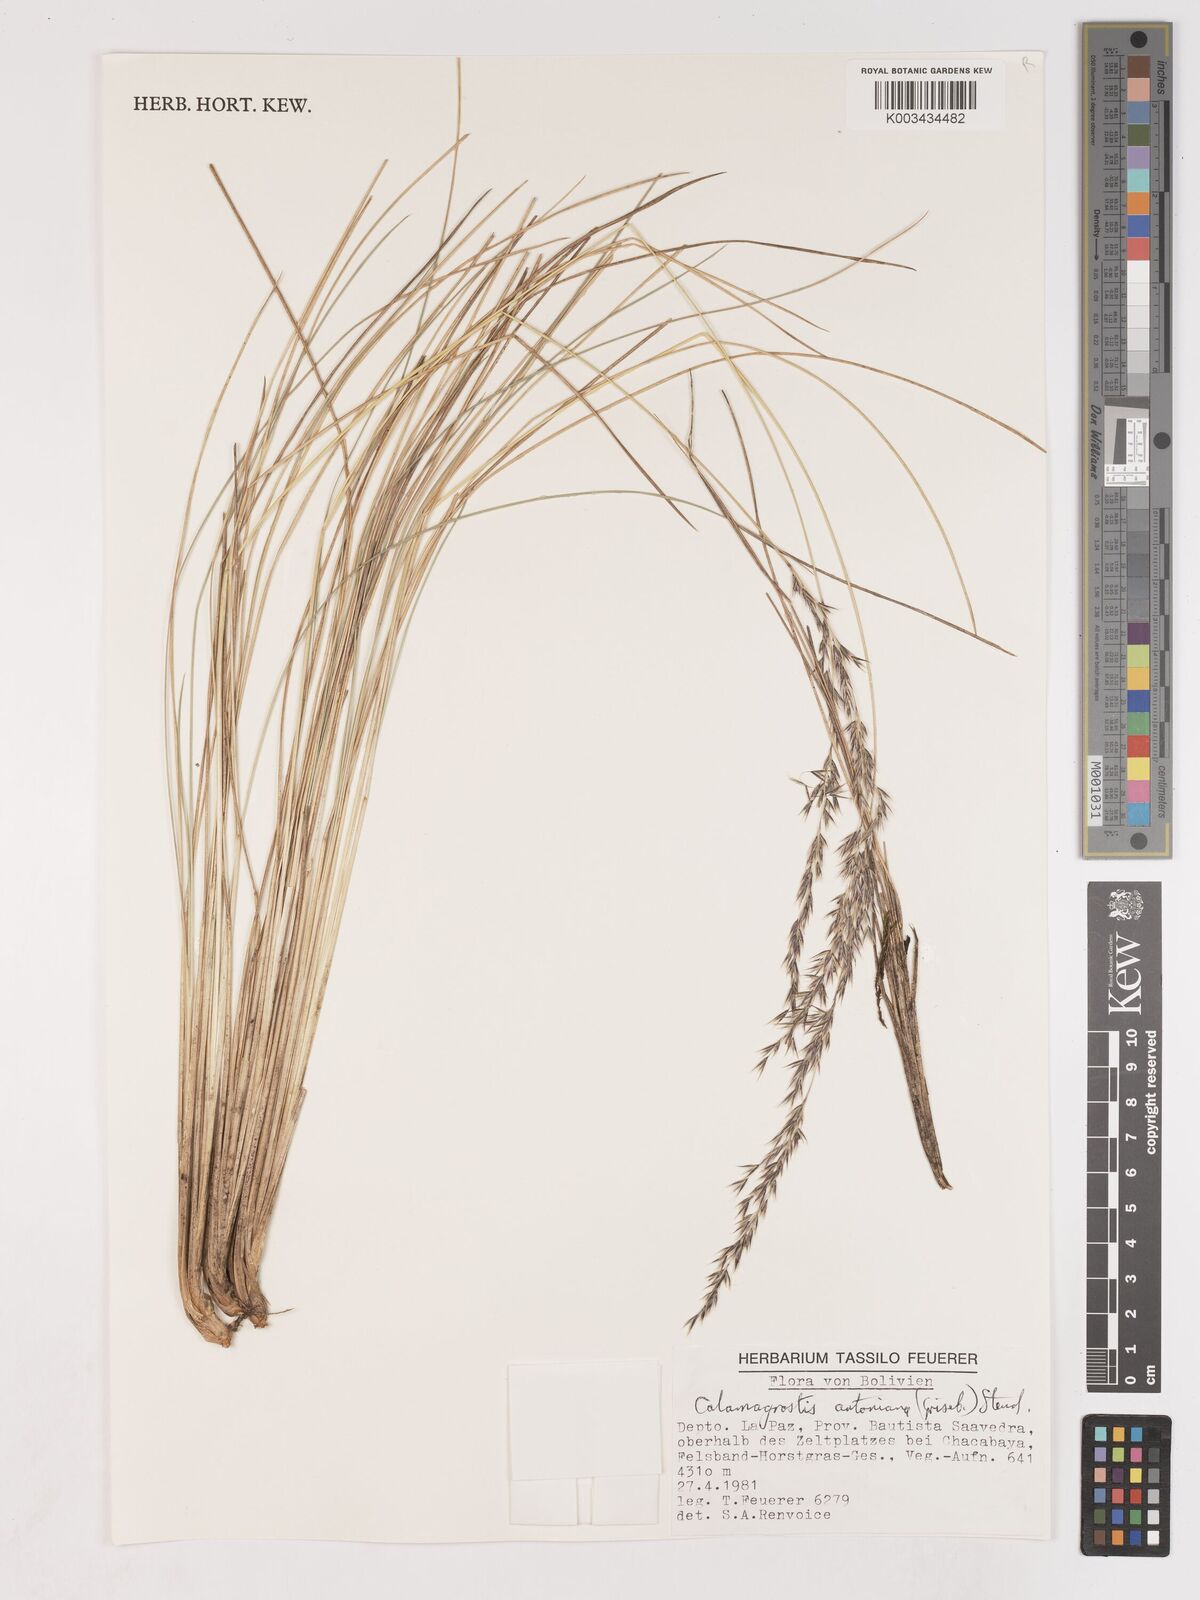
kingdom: Plantae
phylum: Tracheophyta
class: Liliopsida
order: Poales
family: Poaceae
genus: Cinnagrostis
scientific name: Cinnagrostis rigida
